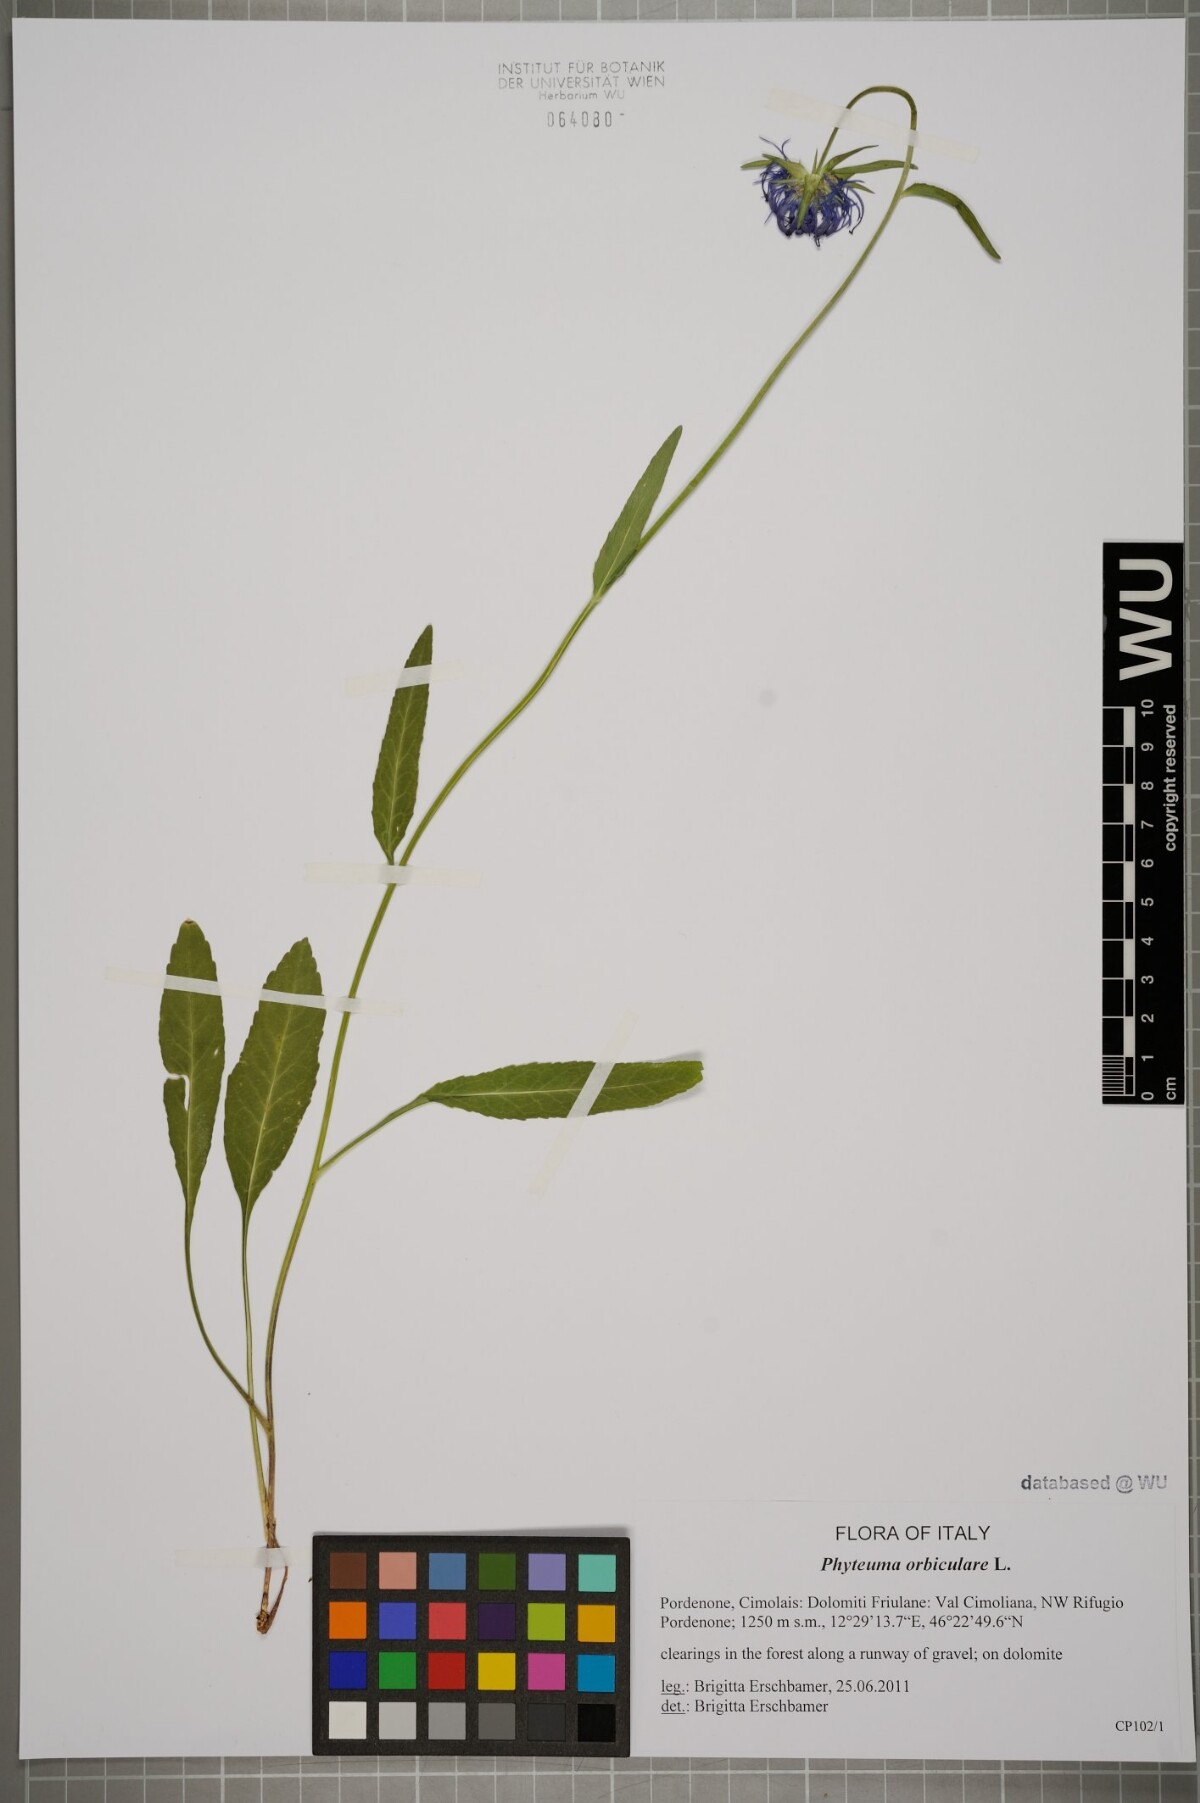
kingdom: Plantae
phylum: Tracheophyta
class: Magnoliopsida
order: Asterales
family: Campanulaceae
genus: Phyteuma
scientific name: Phyteuma orbiculare
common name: Round-headed rampion
